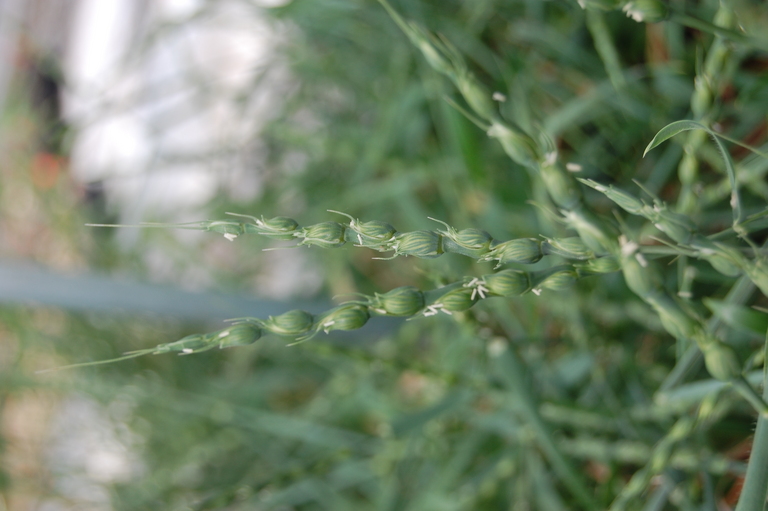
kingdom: Plantae
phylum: Tracheophyta
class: Liliopsida
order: Poales
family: Poaceae
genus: Aegilops
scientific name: Aegilops ventricosa
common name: Swollen goat grass
